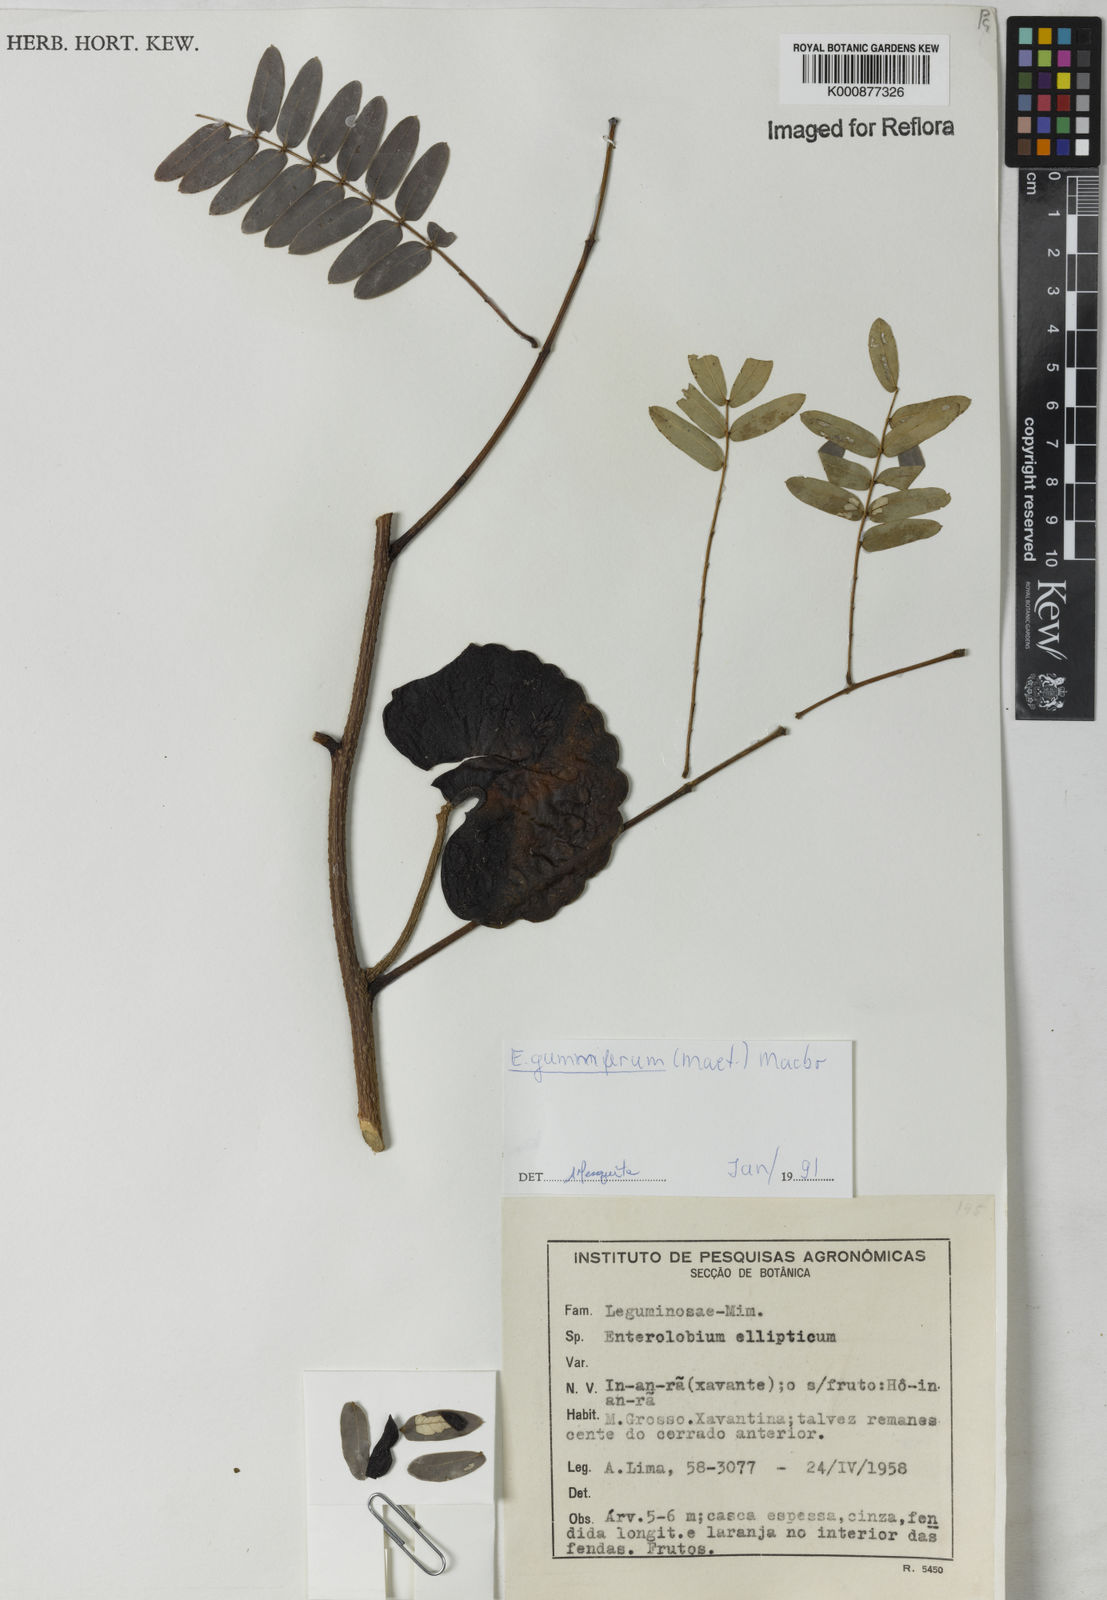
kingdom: Plantae
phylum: Tracheophyta
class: Magnoliopsida
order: Fabales
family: Fabaceae
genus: Enterolobium
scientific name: Enterolobium gummiferum
